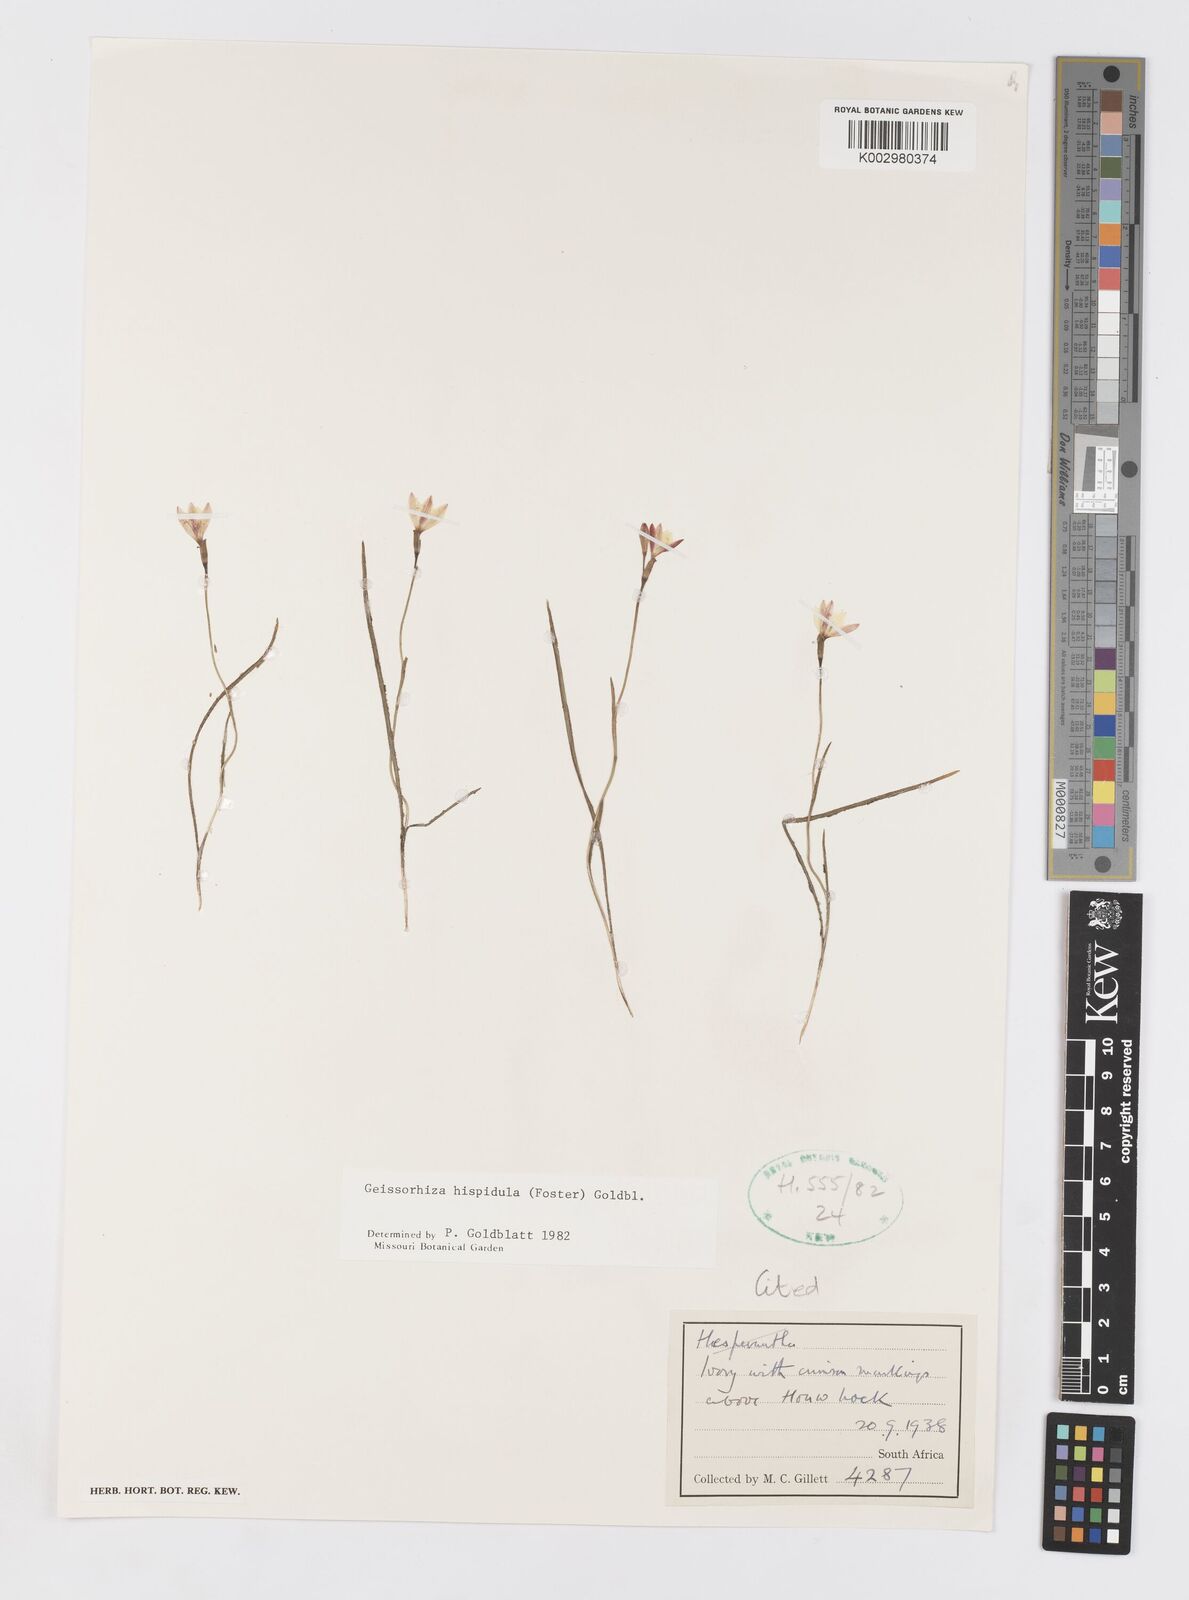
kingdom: Plantae
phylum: Tracheophyta
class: Liliopsida
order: Asparagales
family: Iridaceae
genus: Geissorhiza
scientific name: Geissorhiza hispidula
